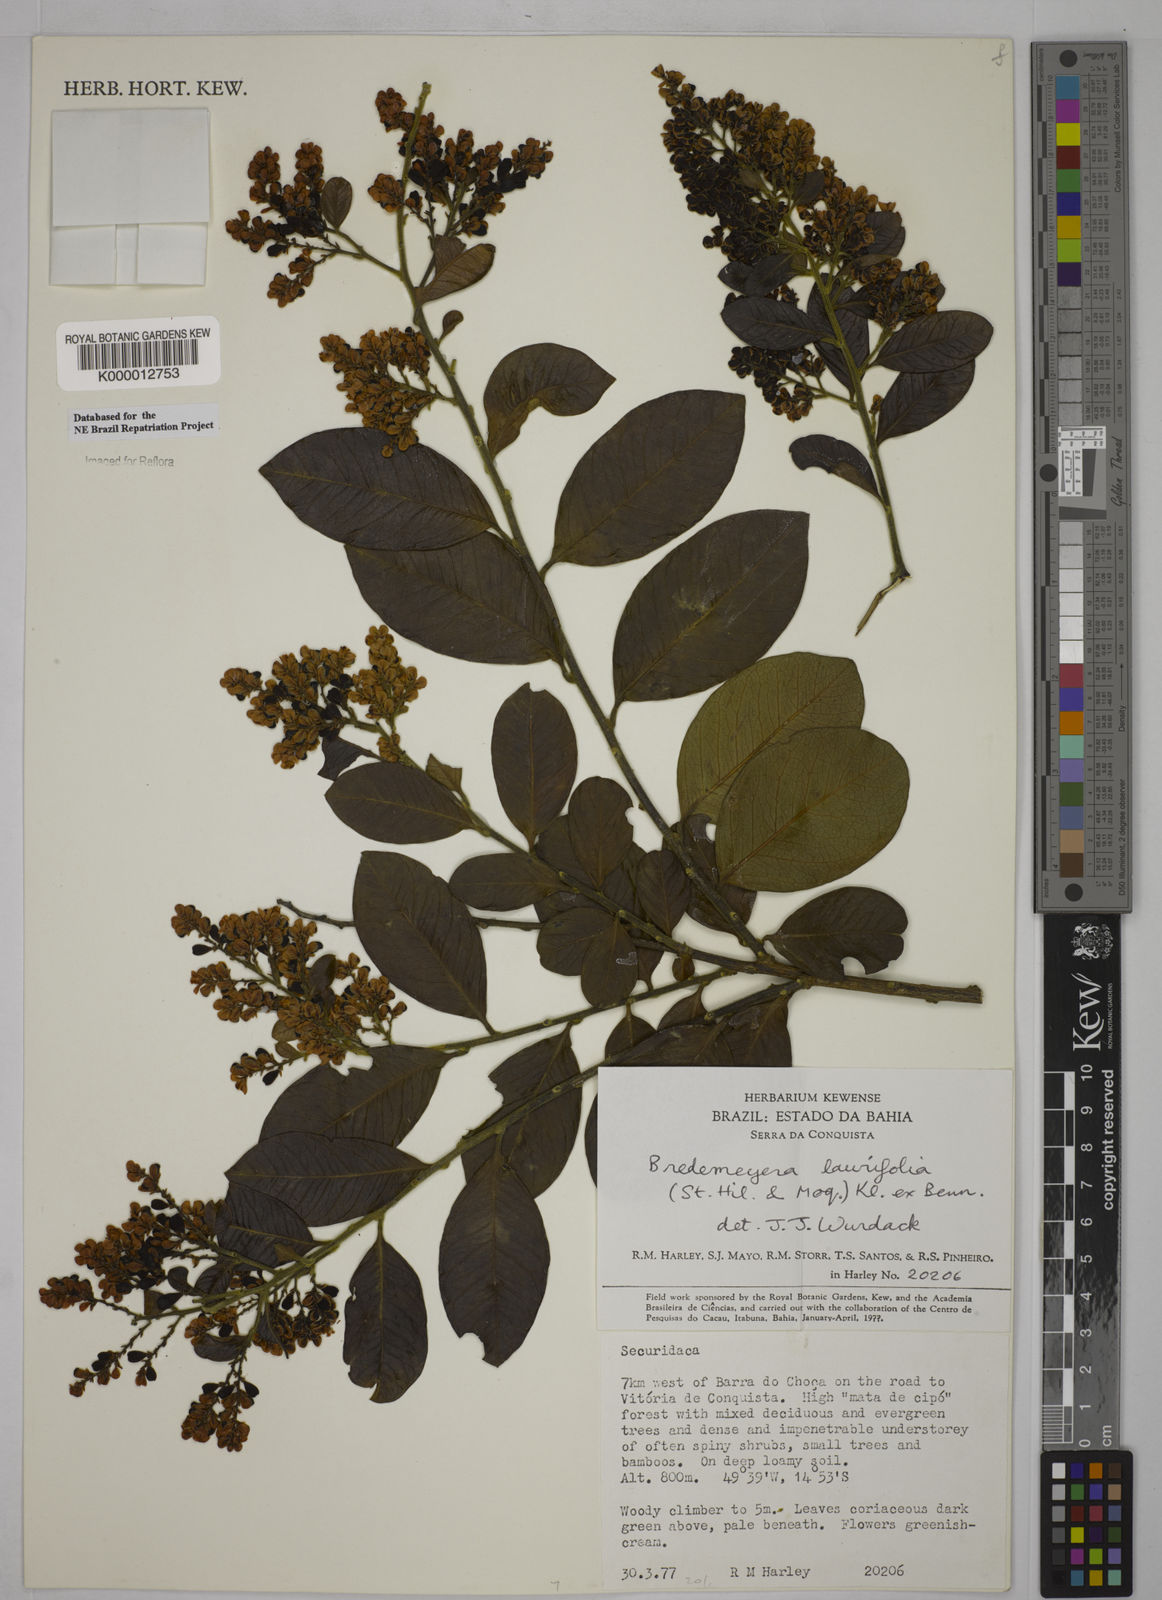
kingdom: Plantae
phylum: Tracheophyta
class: Magnoliopsida
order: Fabales
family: Polygalaceae
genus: Bredemeyera
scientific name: Bredemeyera laurifolia
